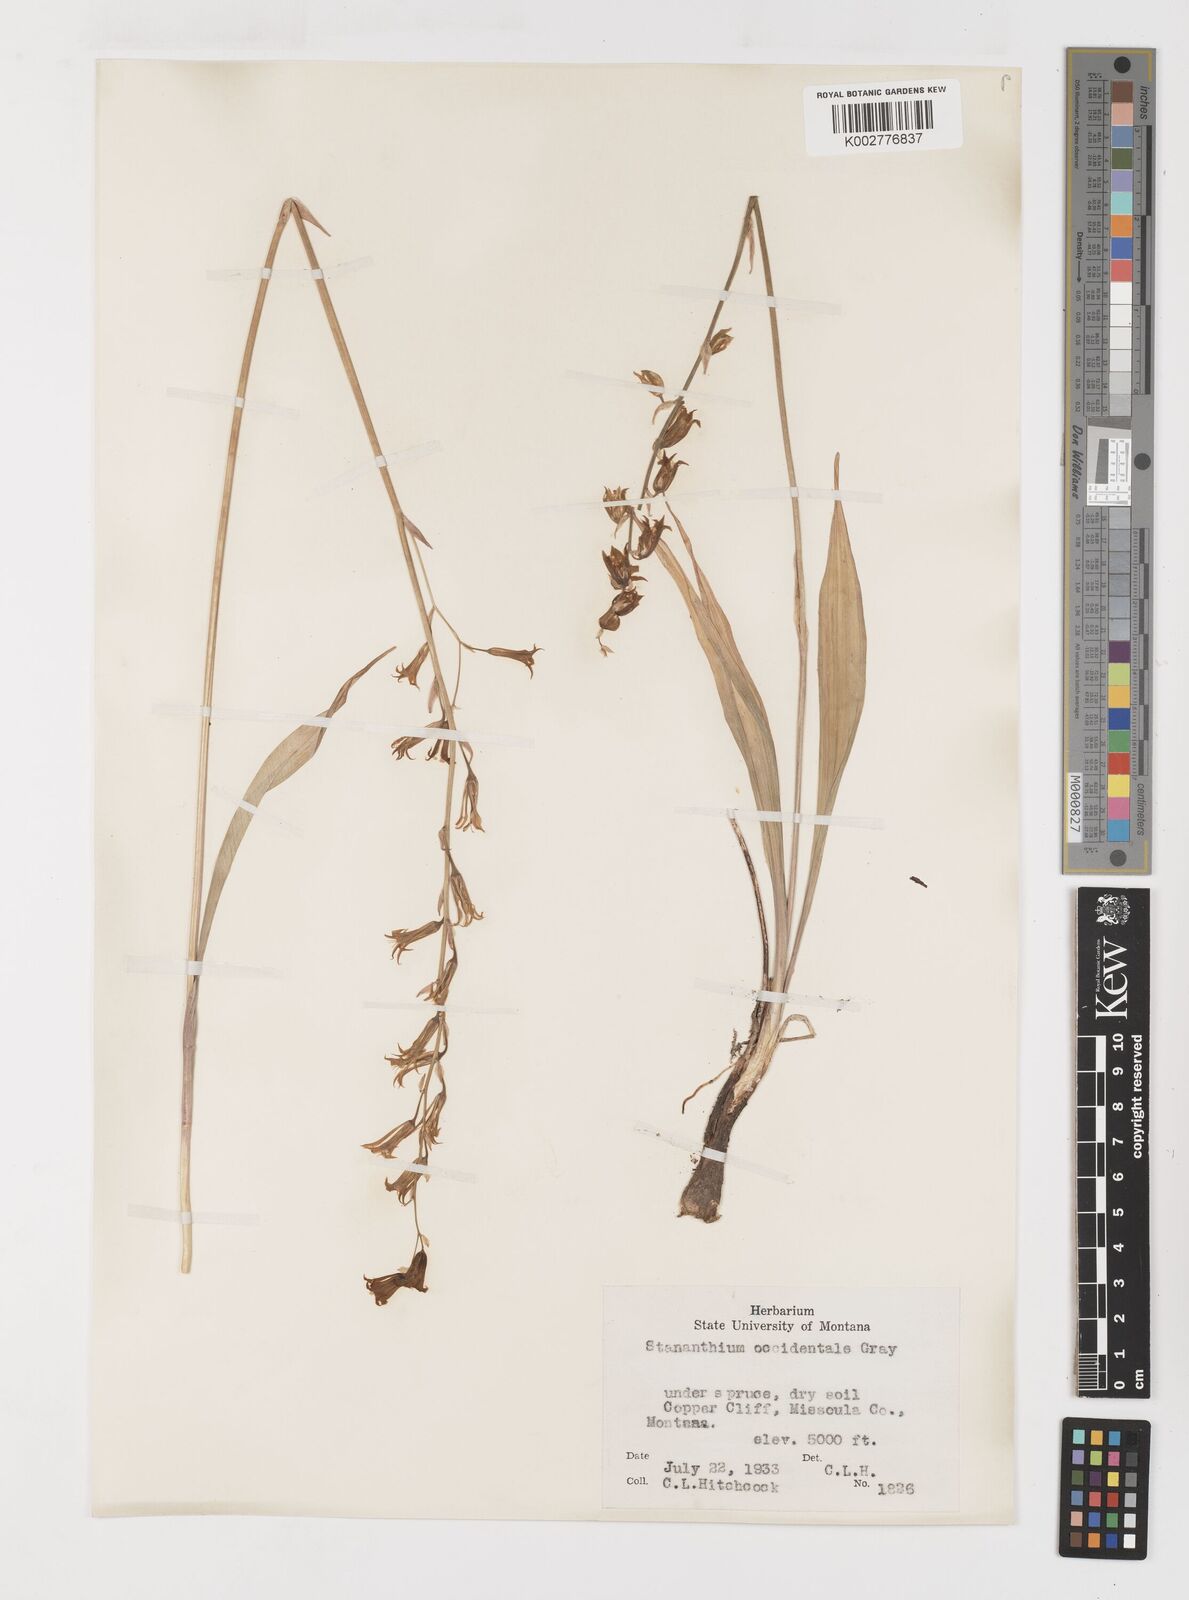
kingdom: Plantae
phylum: Tracheophyta
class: Liliopsida
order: Liliales
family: Melanthiaceae
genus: Anticlea
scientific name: Anticlea occidentalis
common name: Bronze-bells
